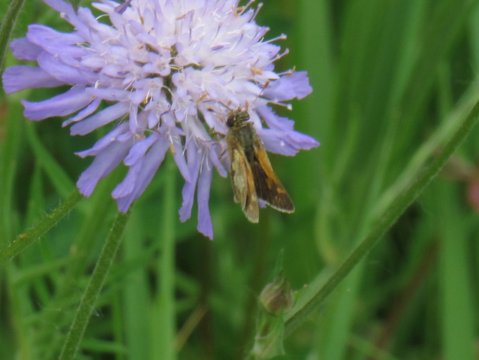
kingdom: Animalia
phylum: Arthropoda
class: Insecta
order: Lepidoptera
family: Hesperiidae
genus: Polites
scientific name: Polites coras
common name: Peck's Skipper
